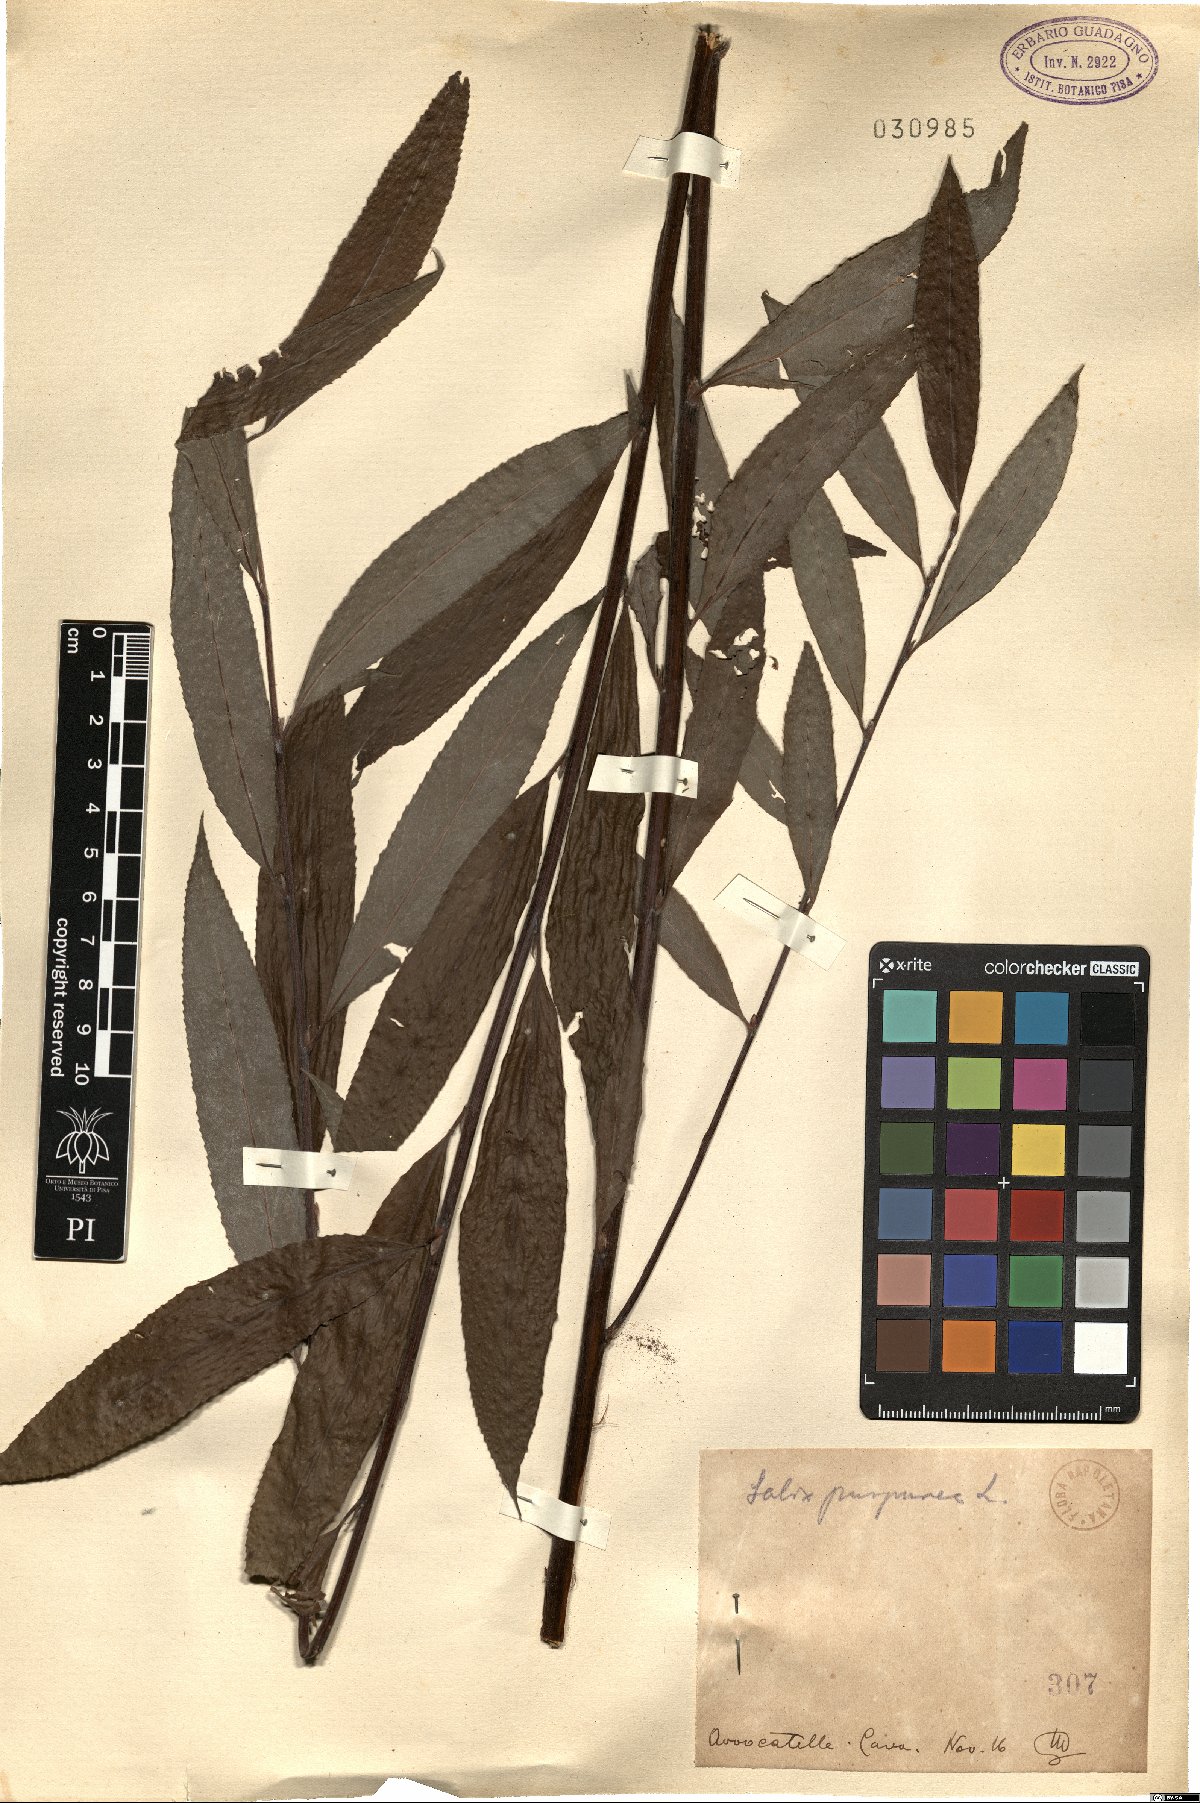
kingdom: Plantae
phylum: Tracheophyta
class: Magnoliopsida
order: Malpighiales
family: Salicaceae
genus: Salix
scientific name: Salix purpurea
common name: Purple willow
